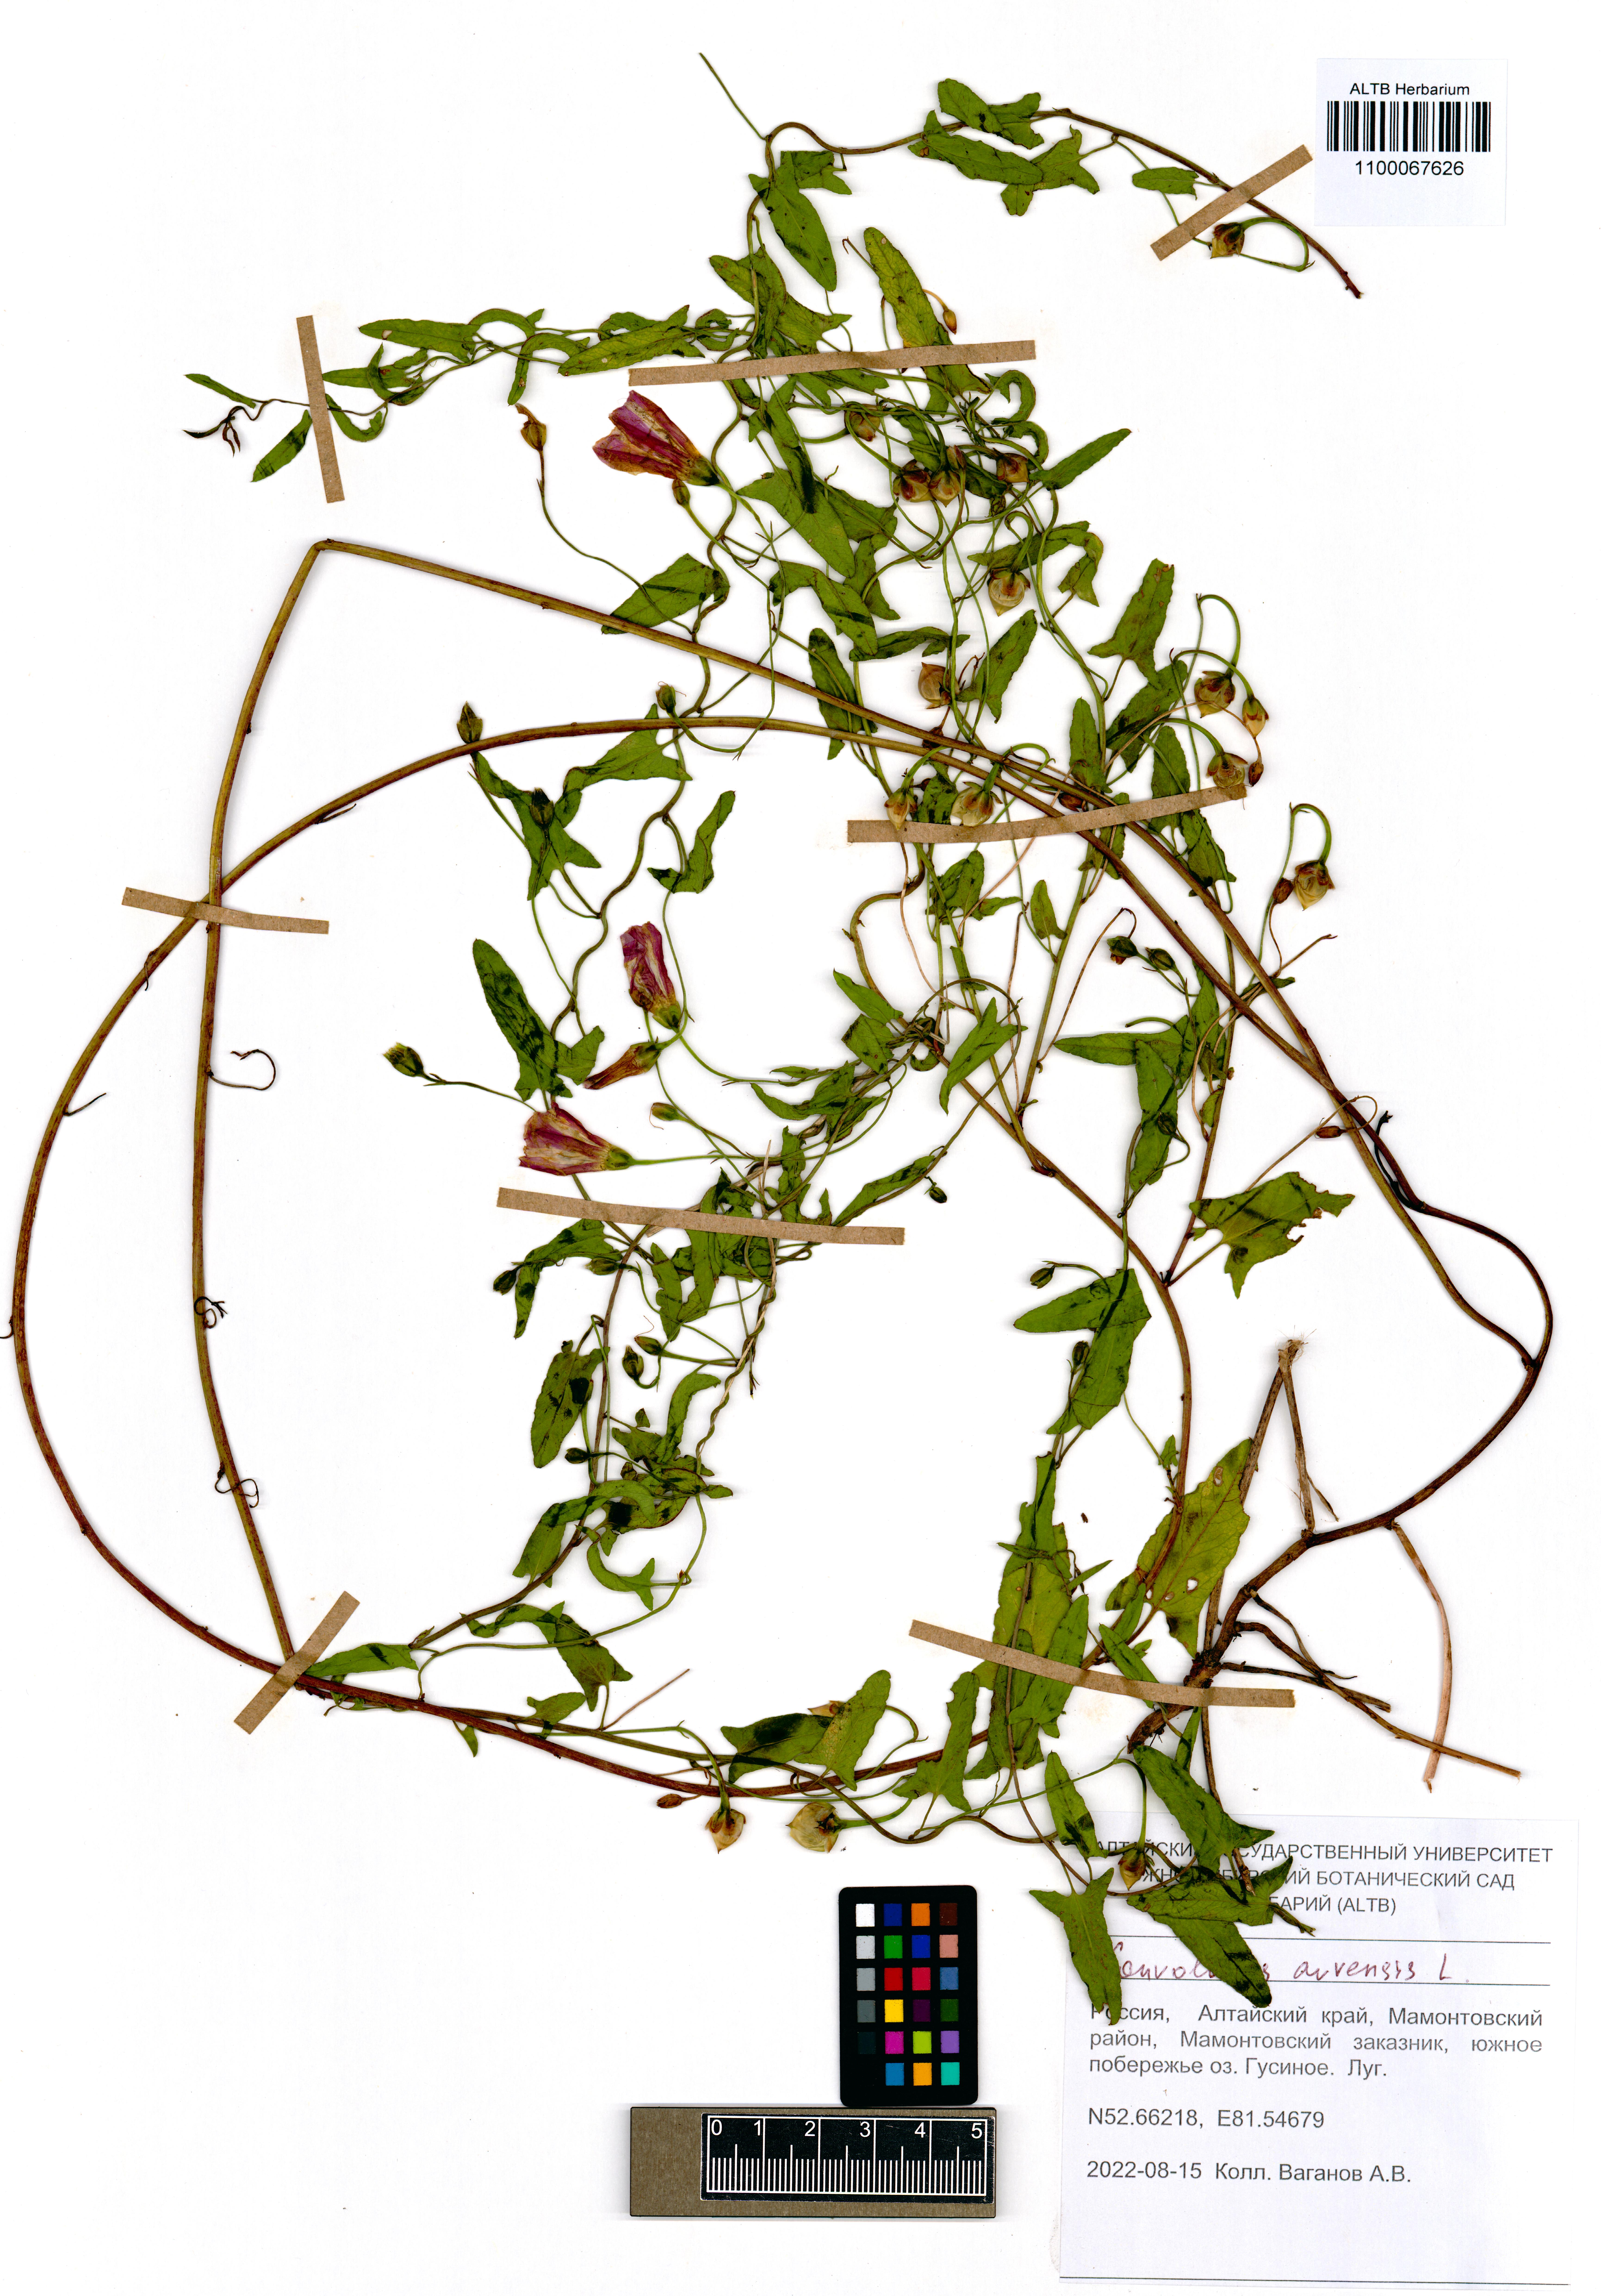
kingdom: Plantae
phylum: Tracheophyta
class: Magnoliopsida
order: Solanales
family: Convolvulaceae
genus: Convolvulus
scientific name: Convolvulus arvensis
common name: Field bindweed
